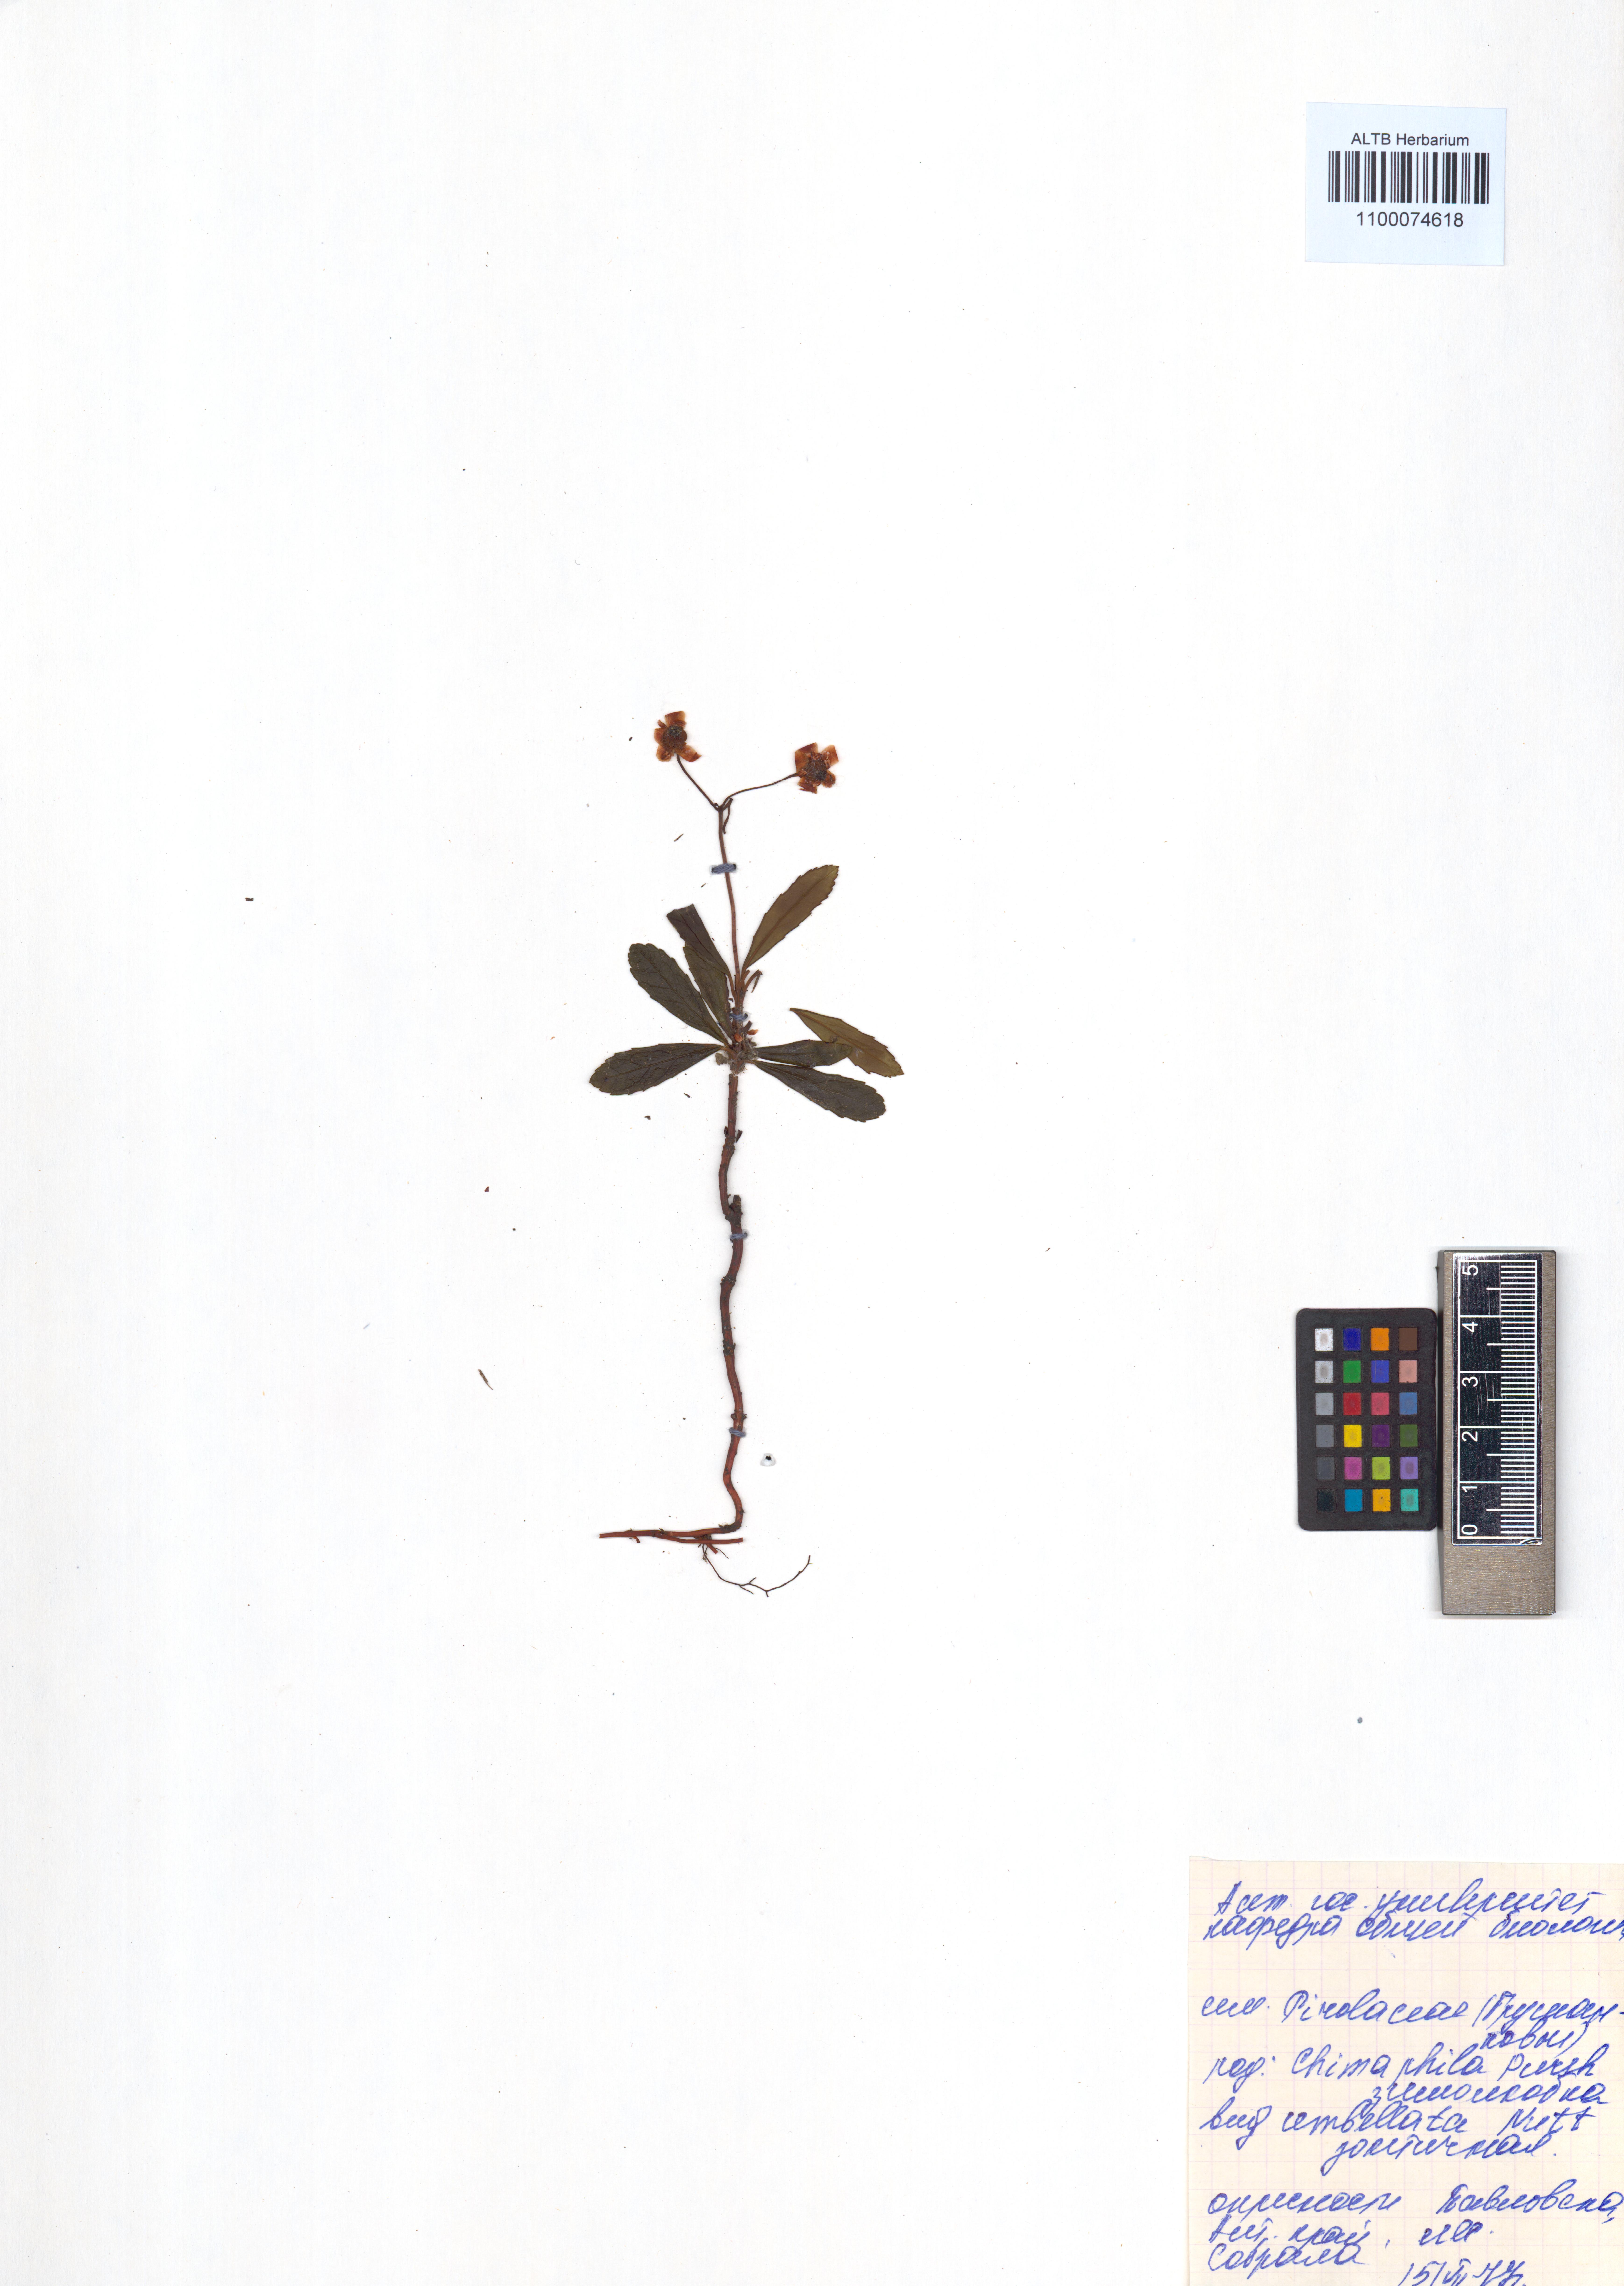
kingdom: Plantae
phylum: Tracheophyta
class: Magnoliopsida
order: Ericales
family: Ericaceae
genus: Chimaphila
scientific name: Chimaphila umbellata
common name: Pipsissewa
